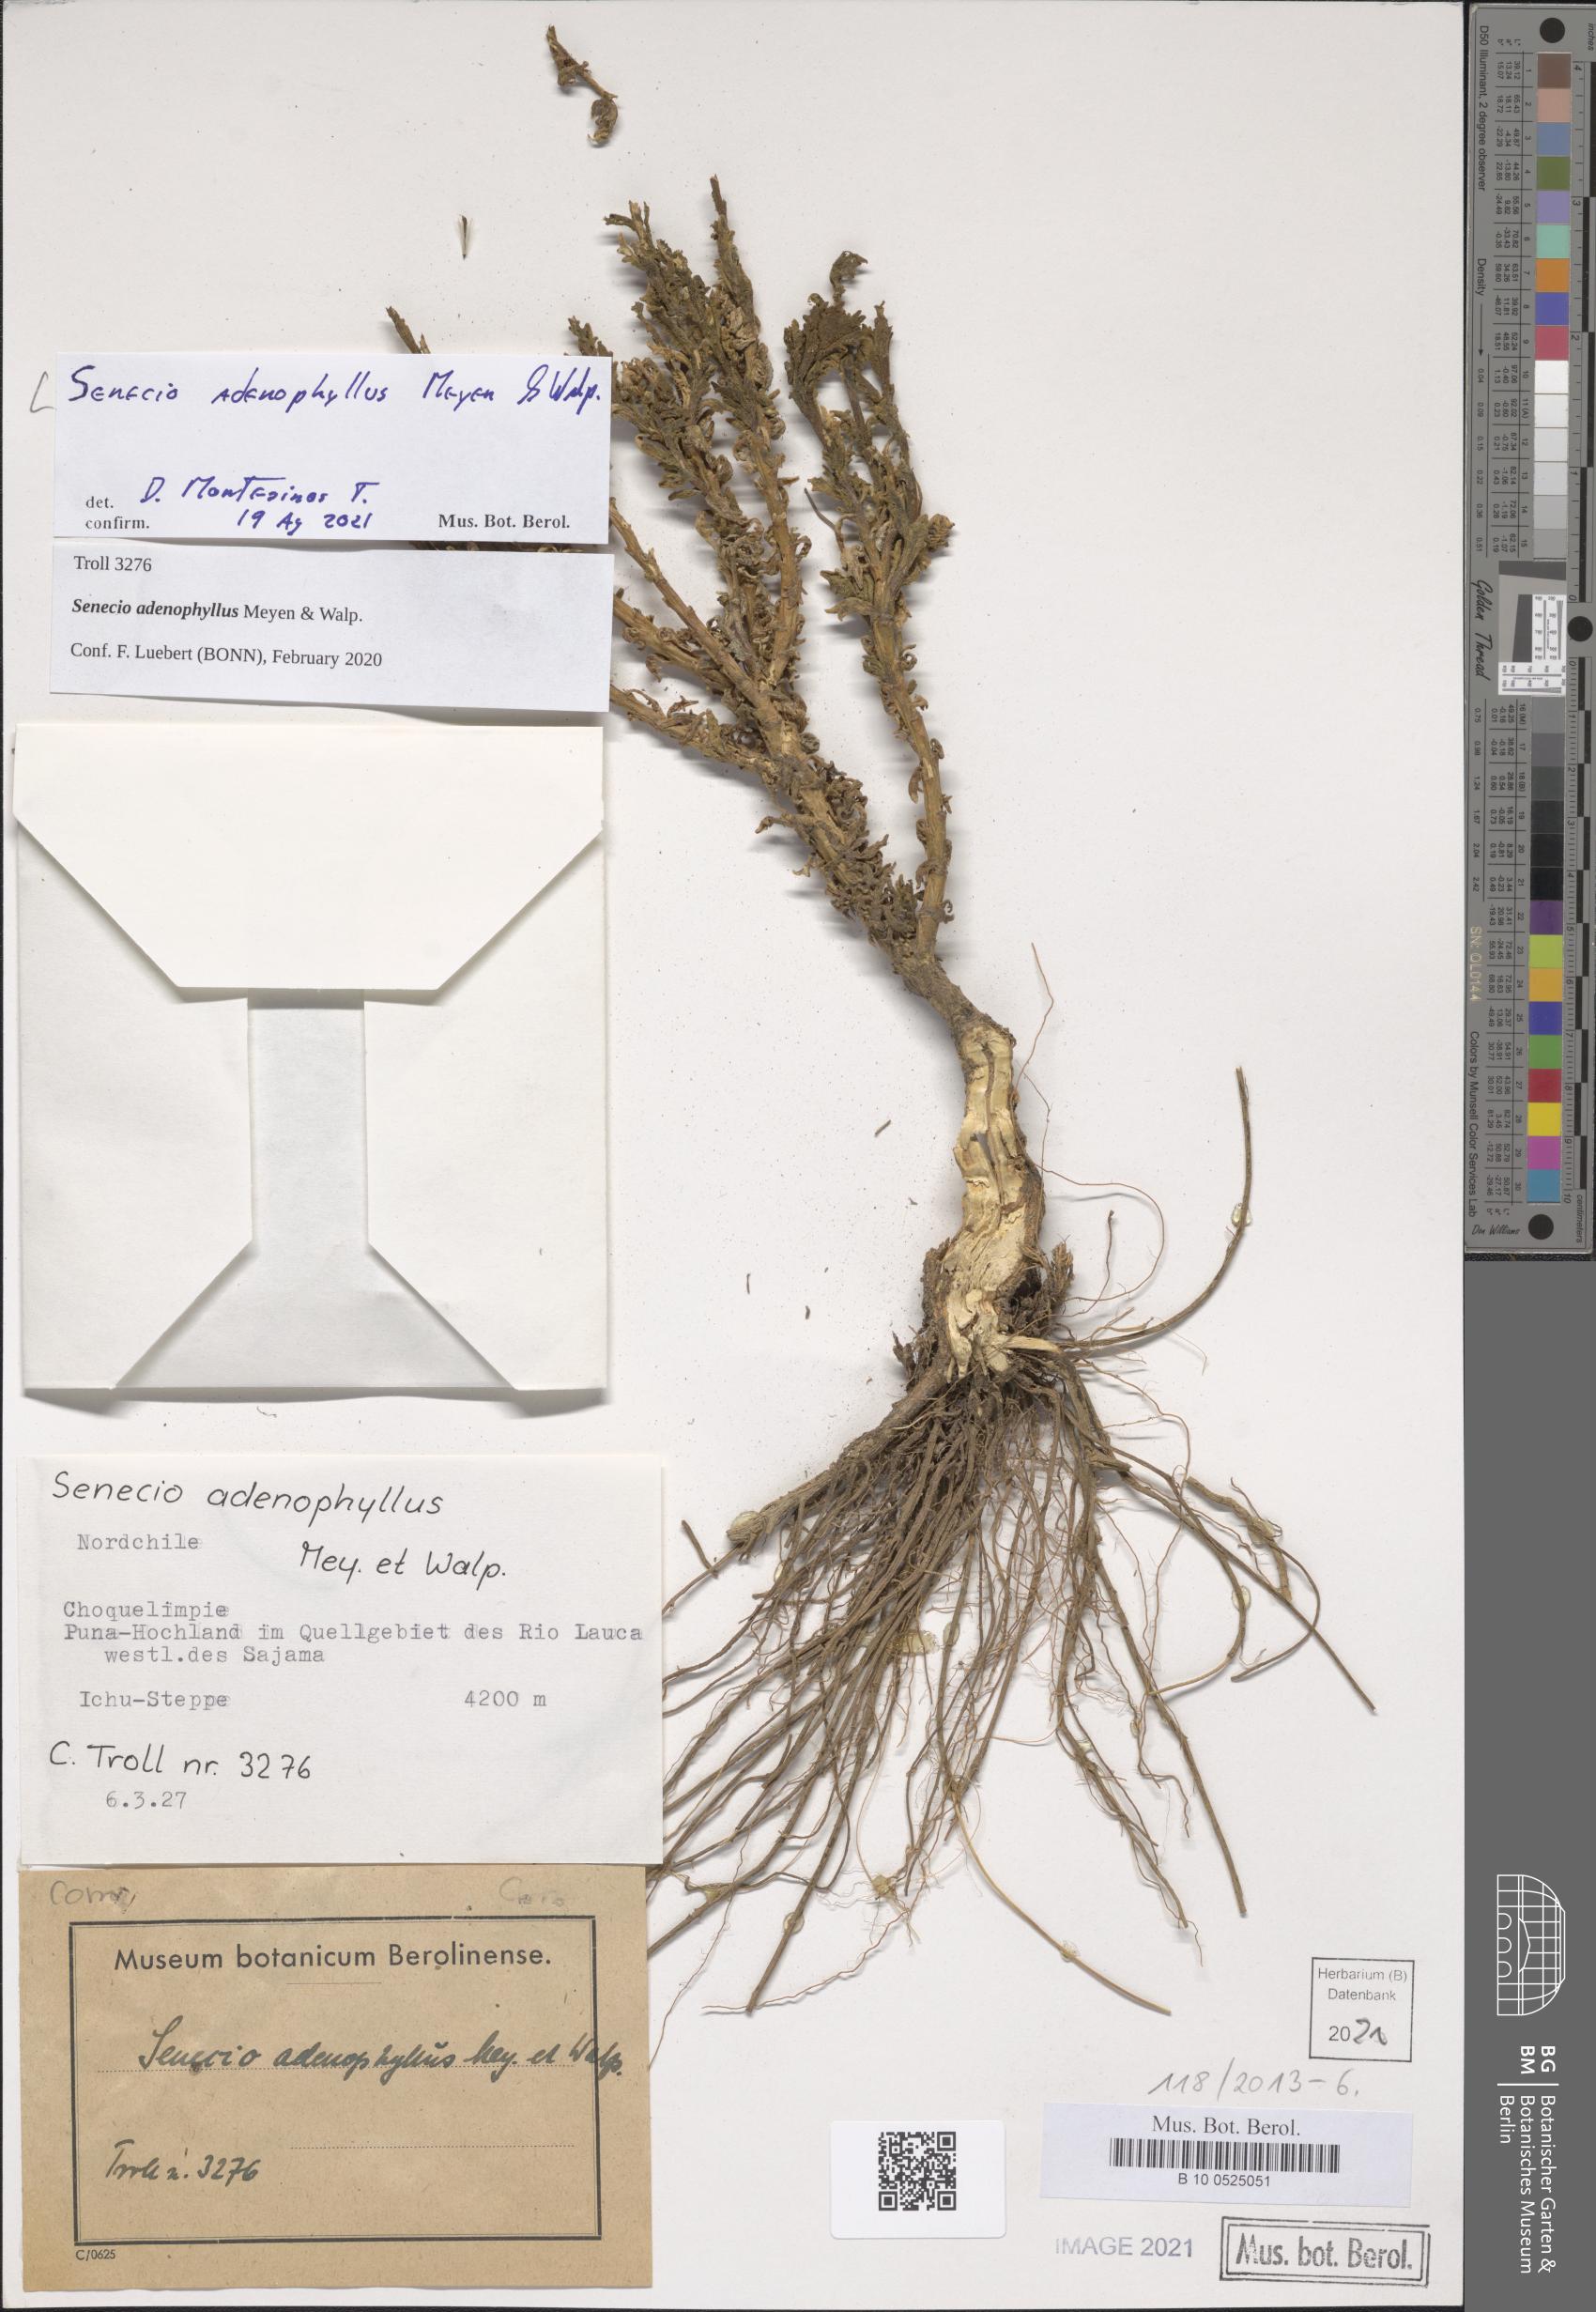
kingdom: Plantae
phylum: Tracheophyta
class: Magnoliopsida
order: Asterales
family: Asteraceae
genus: Senecio
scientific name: Senecio adenophyllus
